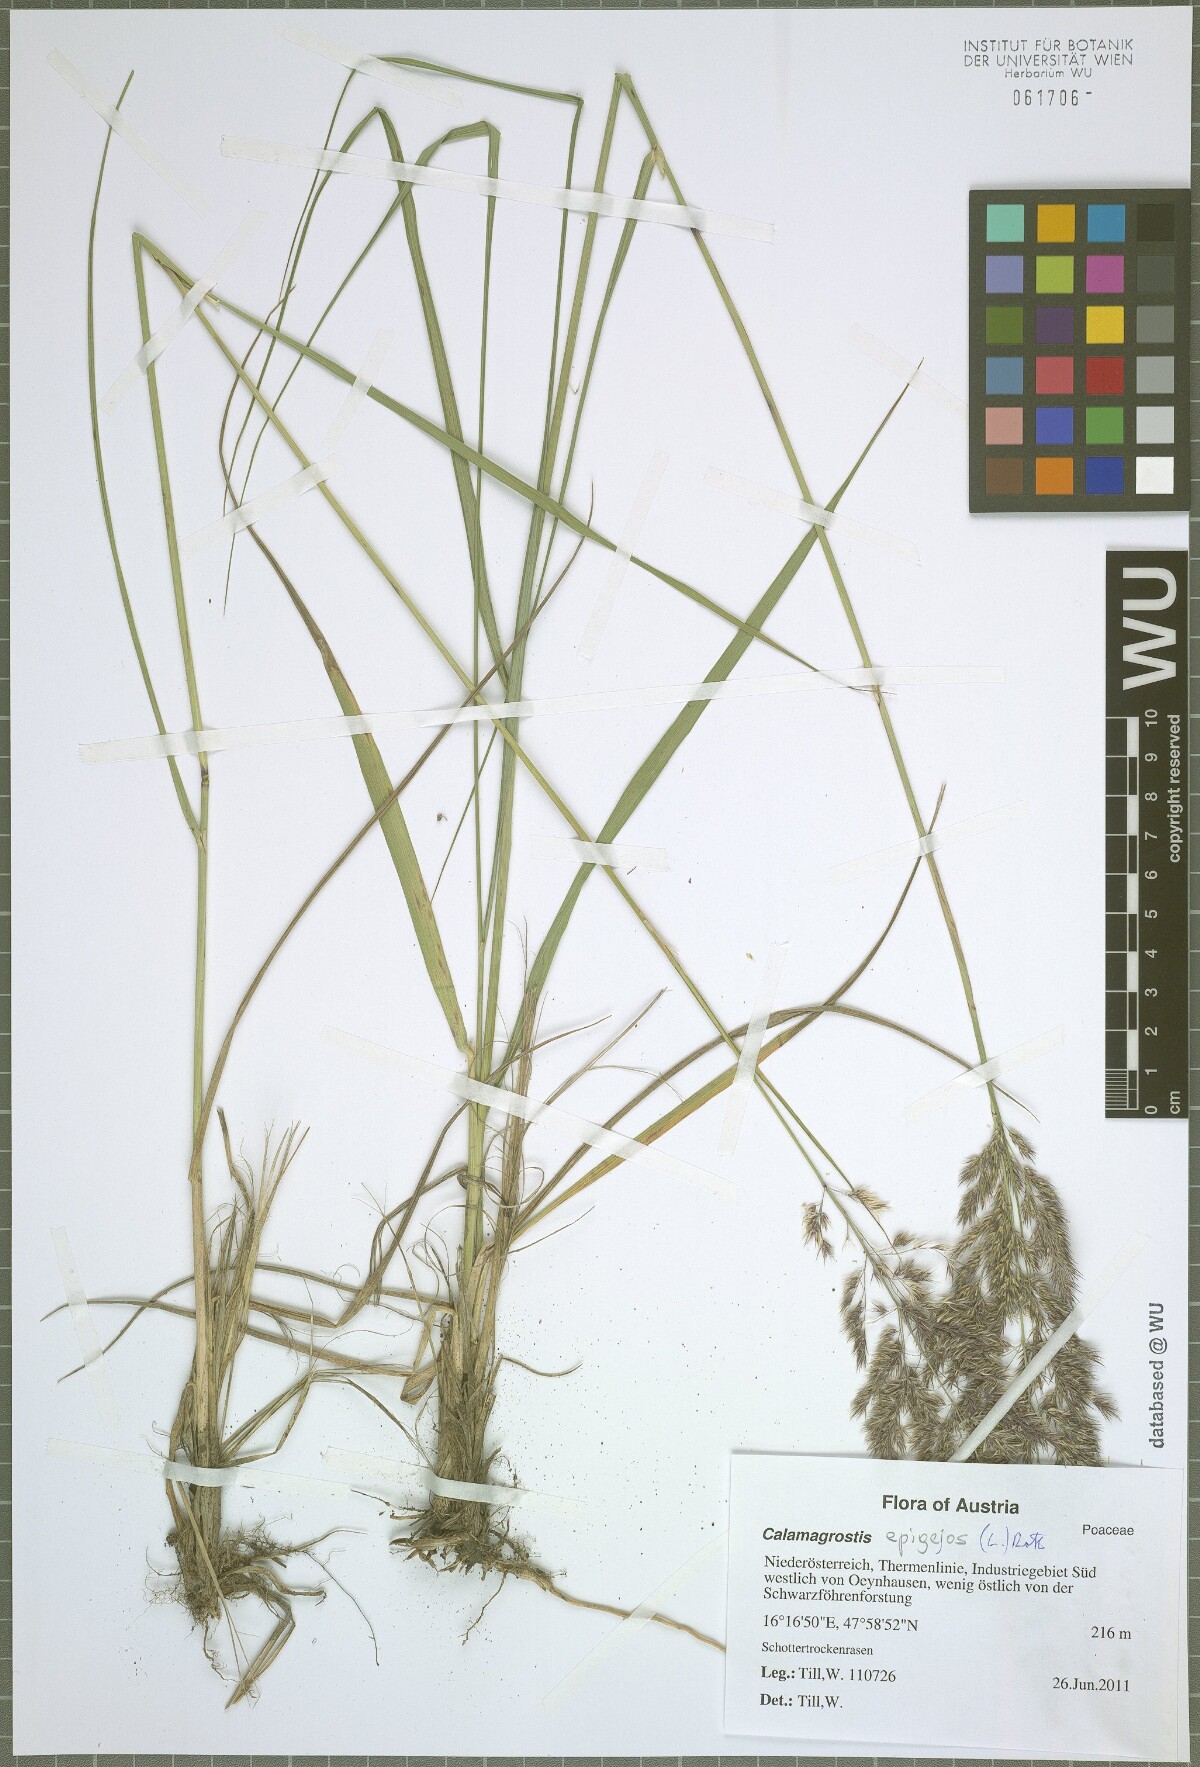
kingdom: Plantae
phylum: Tracheophyta
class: Liliopsida
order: Poales
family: Poaceae
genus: Calamagrostis
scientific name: Calamagrostis epigejos
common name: Wood small-reed
